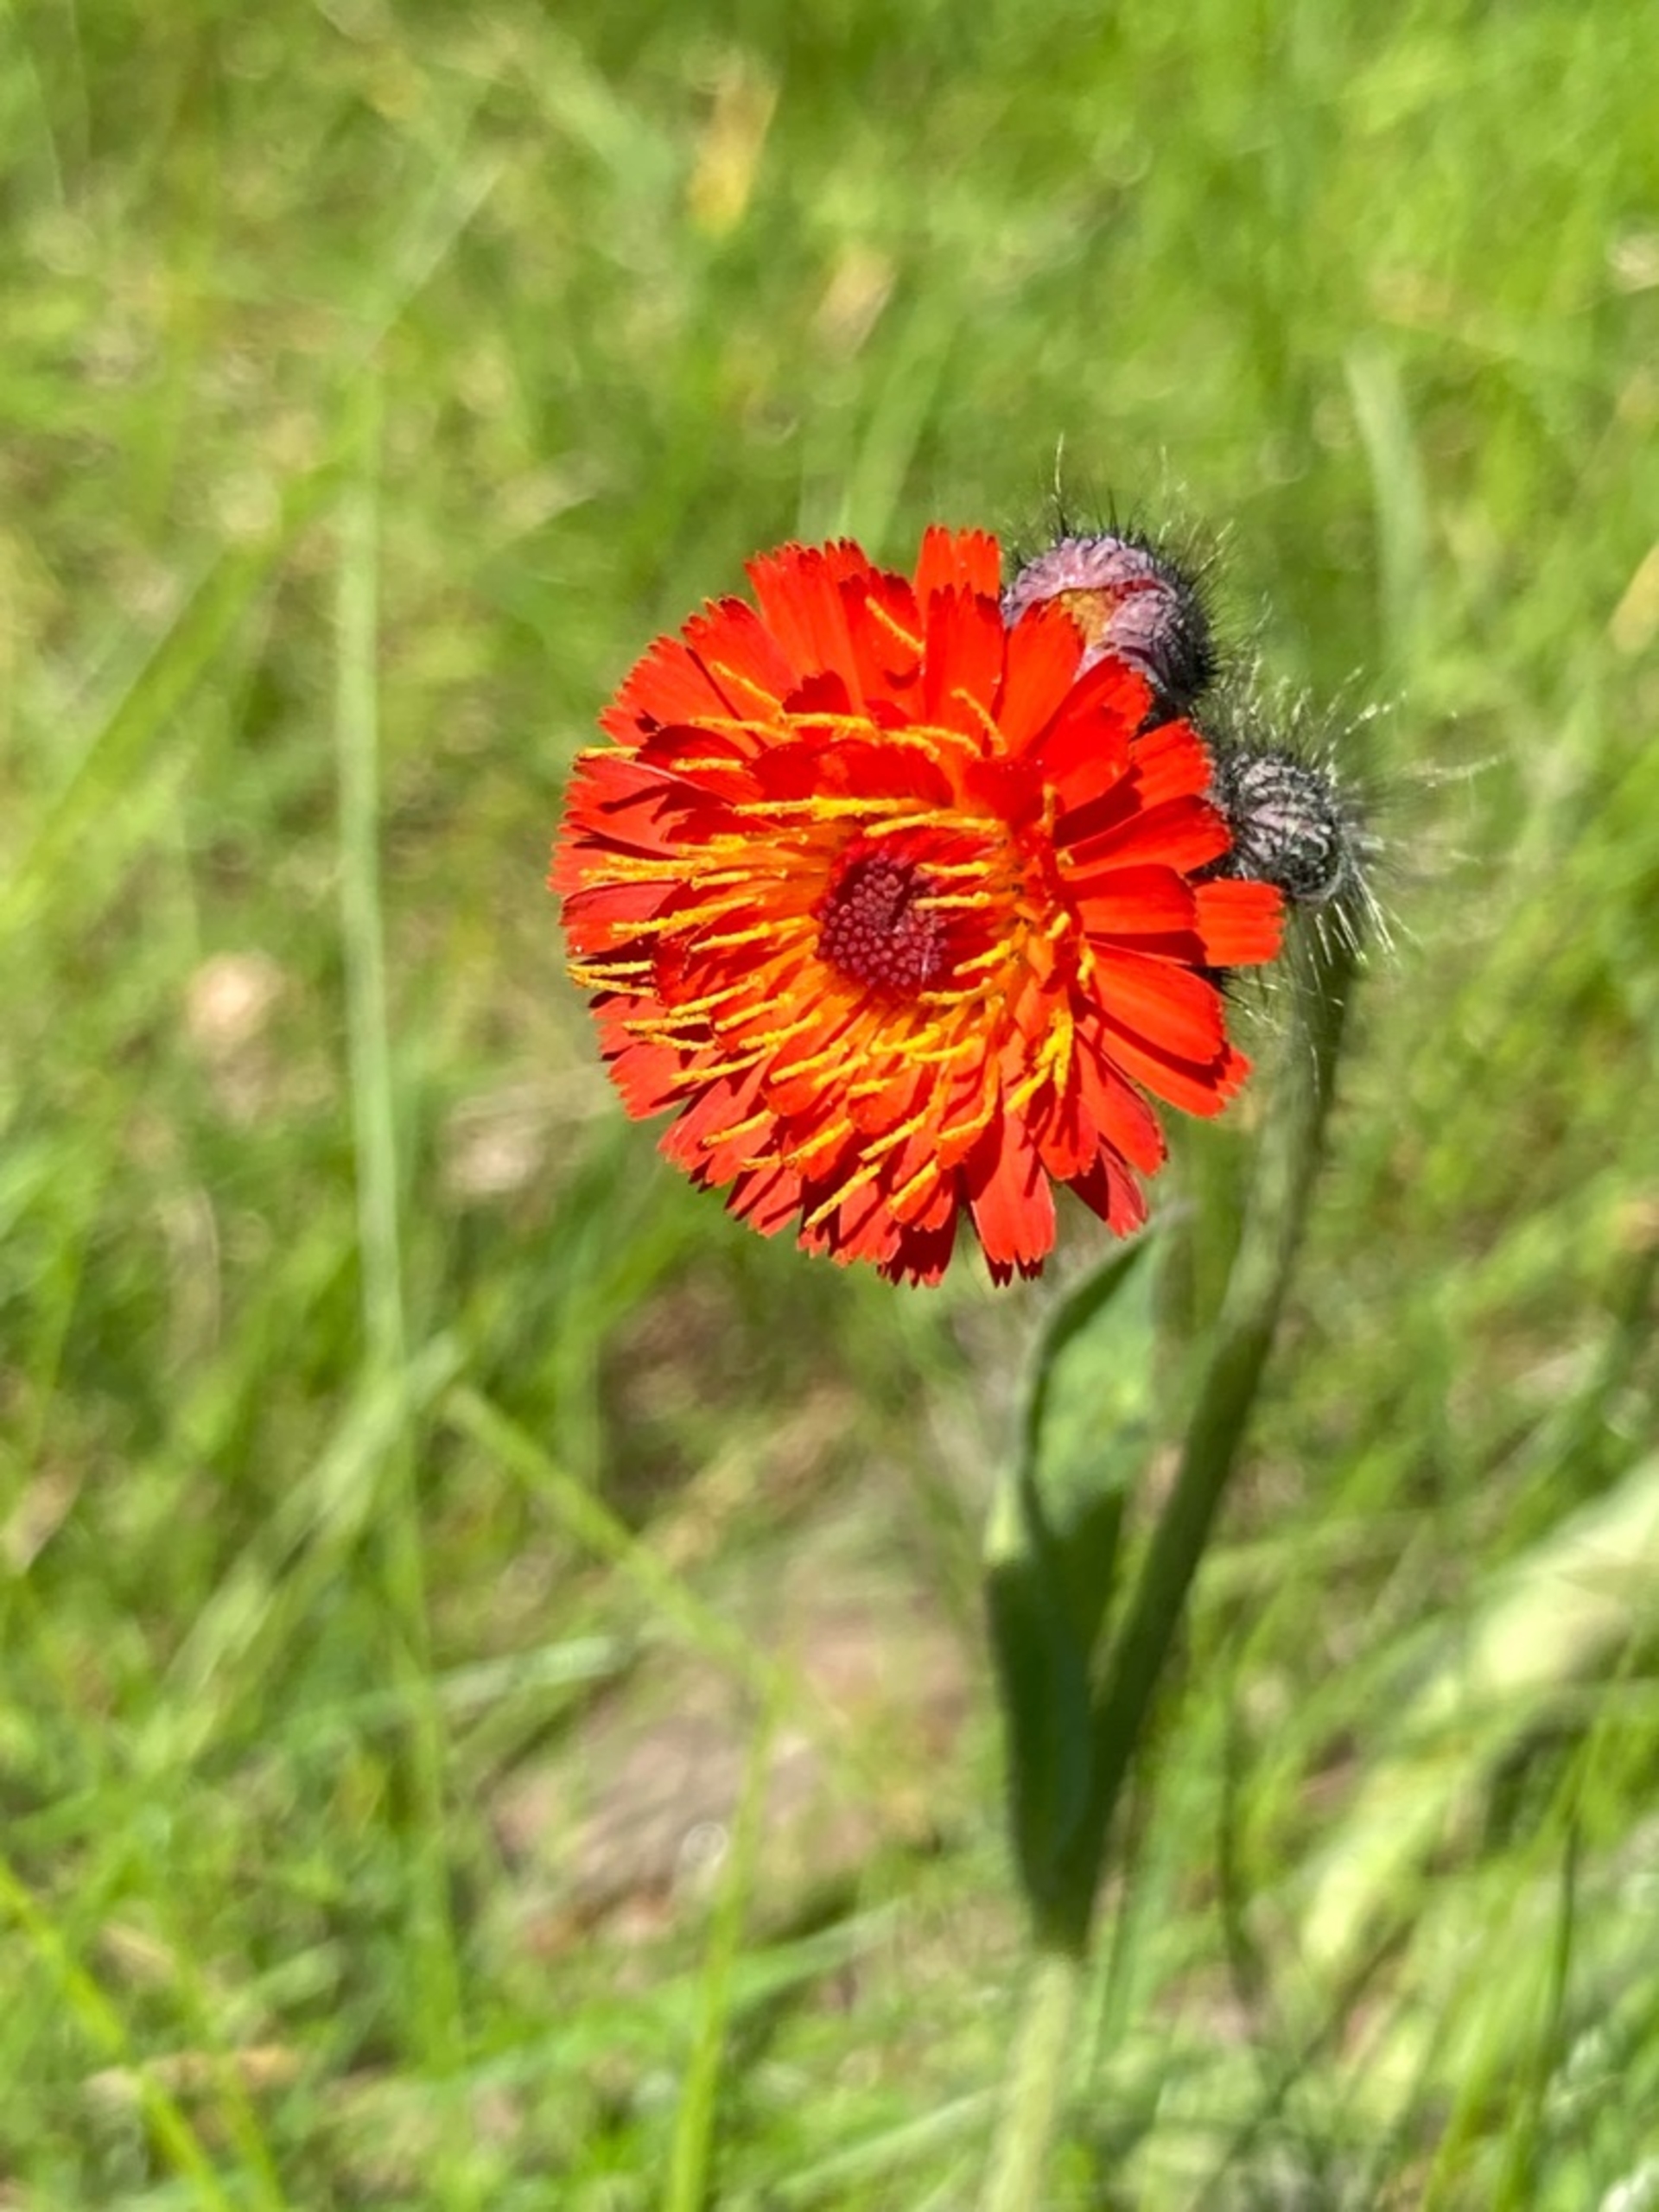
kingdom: Plantae
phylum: Tracheophyta
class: Magnoliopsida
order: Asterales
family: Asteraceae
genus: Pilosella
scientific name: Pilosella aurantiaca
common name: Pomerans-høgeurt
